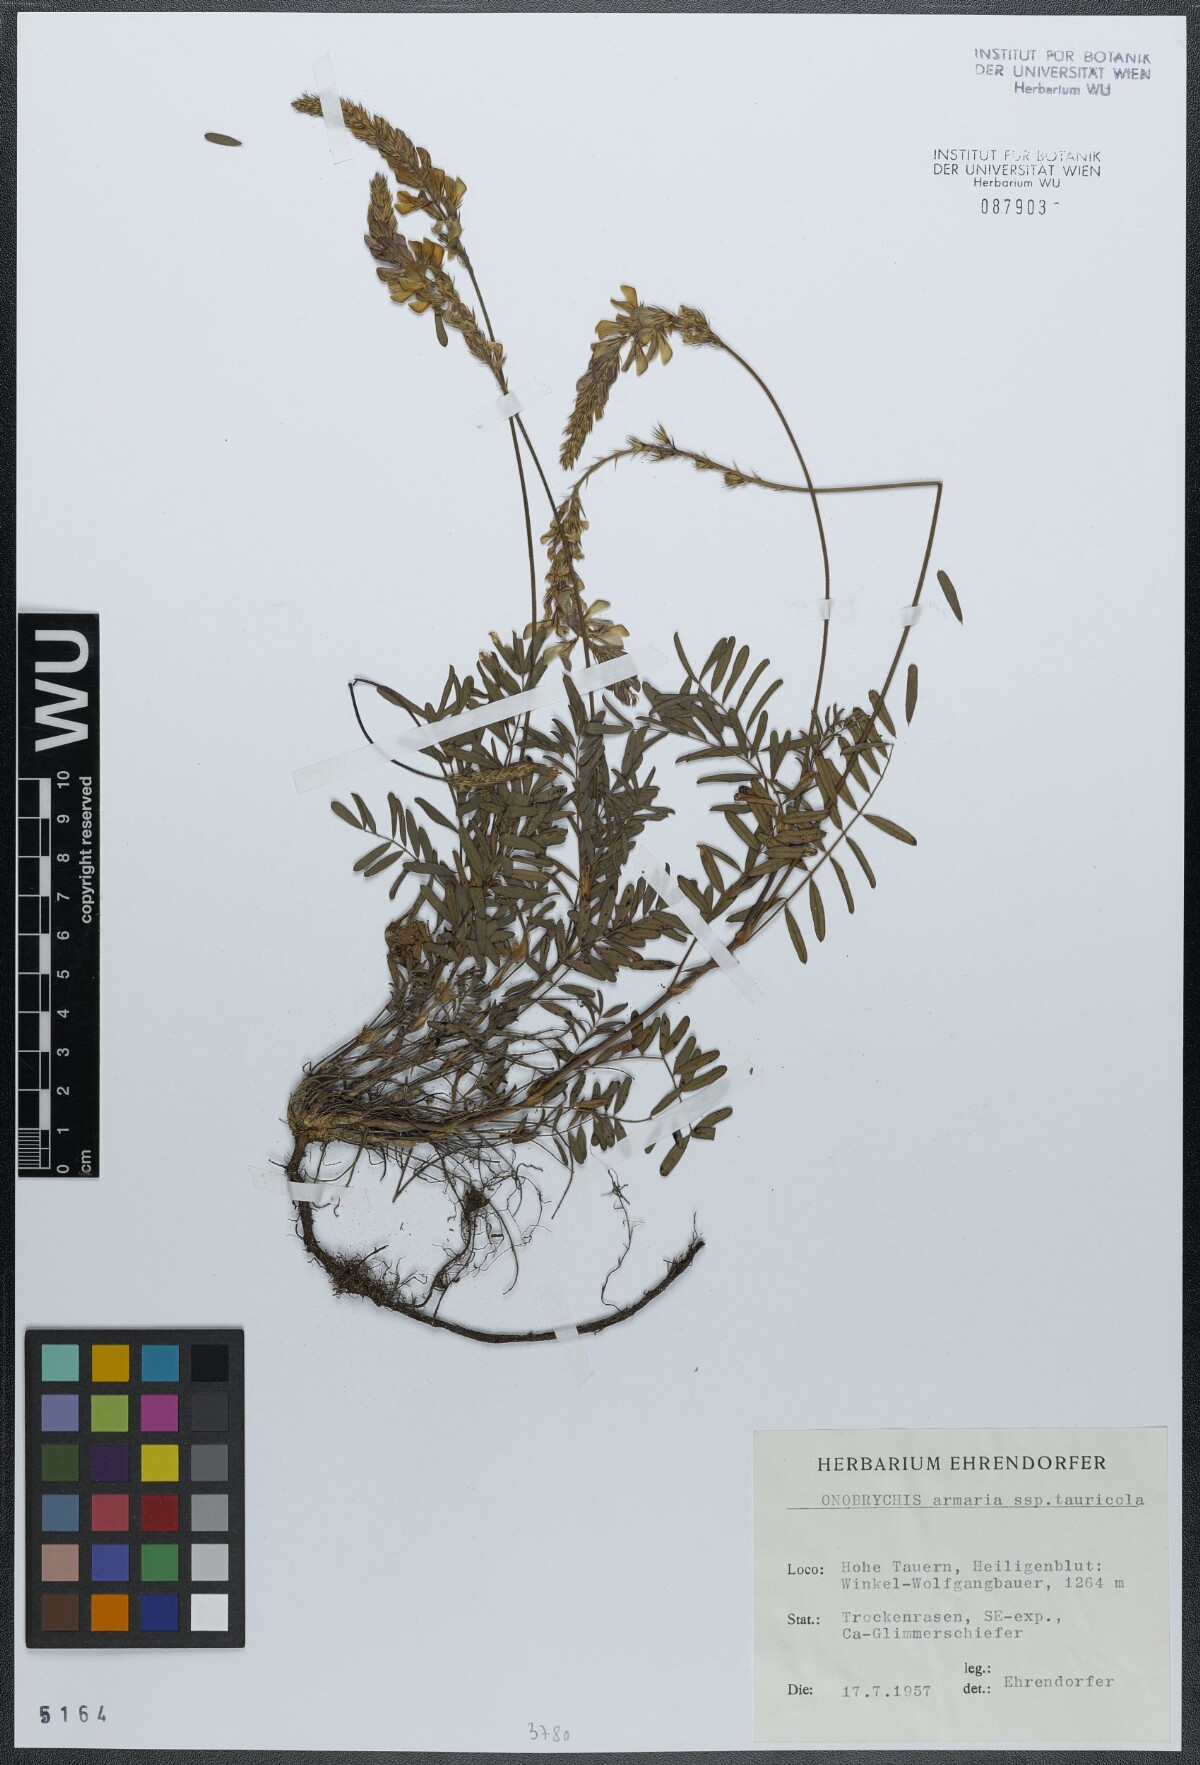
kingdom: Plantae
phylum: Tracheophyta
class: Magnoliopsida
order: Fabales
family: Fabaceae
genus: Onobrychis
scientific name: Onobrychis arenaria
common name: Sand esparcet
